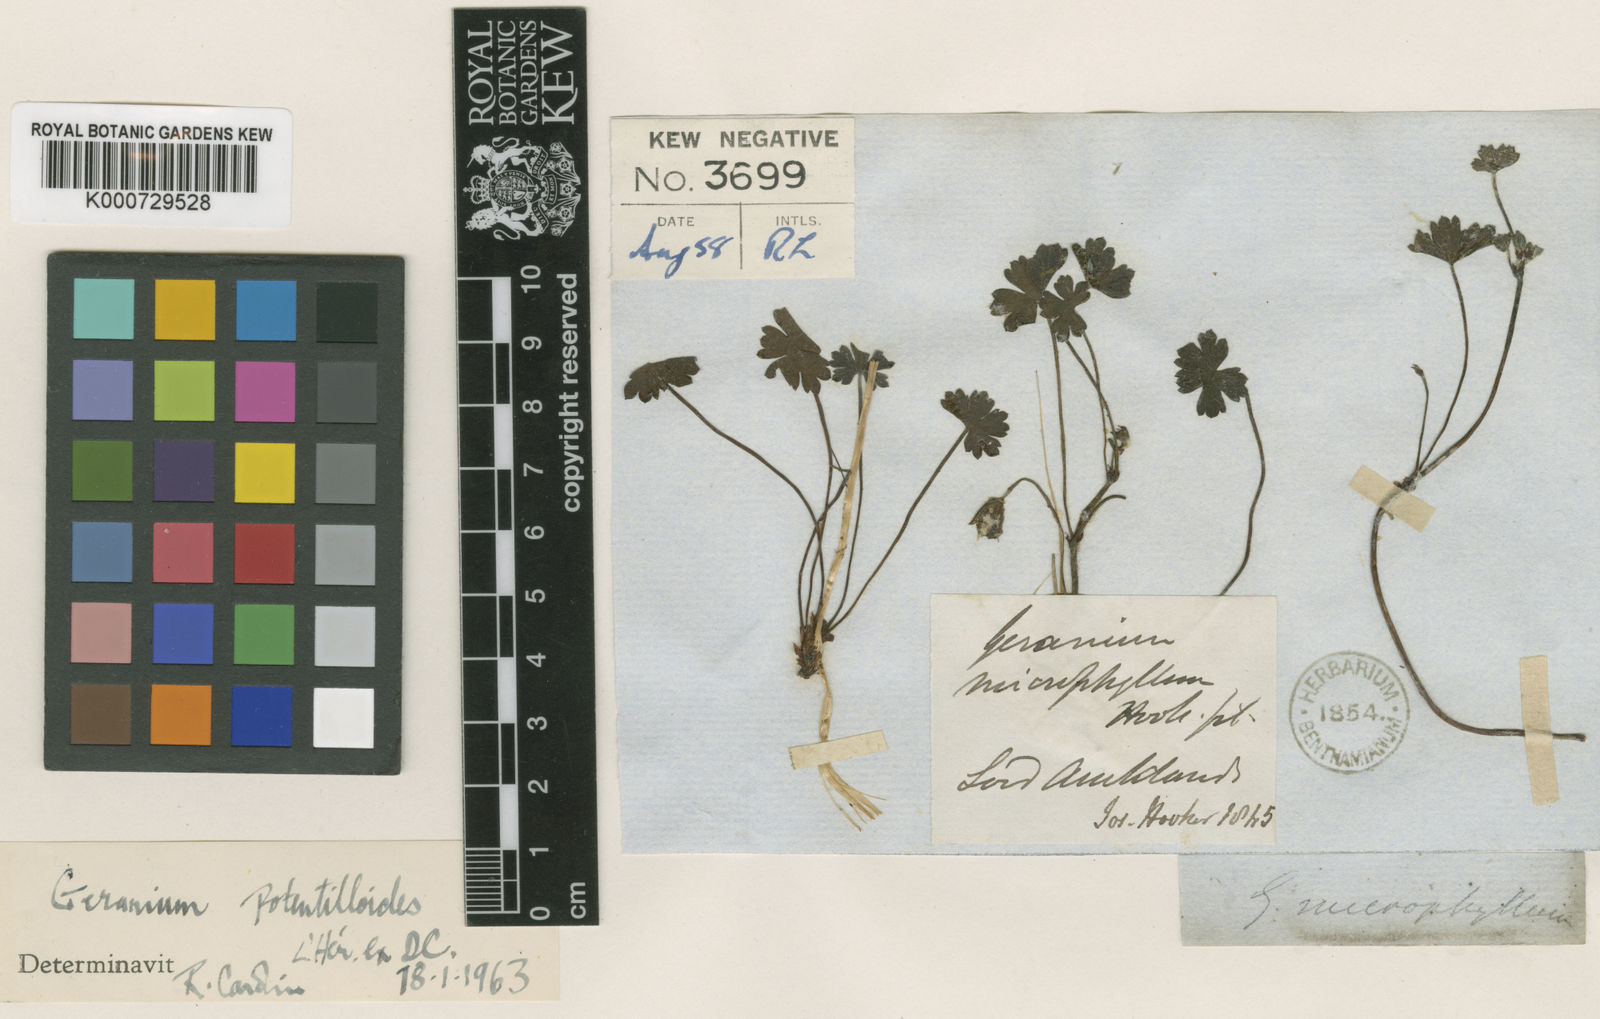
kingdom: Plantae
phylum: Tracheophyta
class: Magnoliopsida
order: Geraniales
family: Geraniaceae
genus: Geranium
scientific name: Geranium
